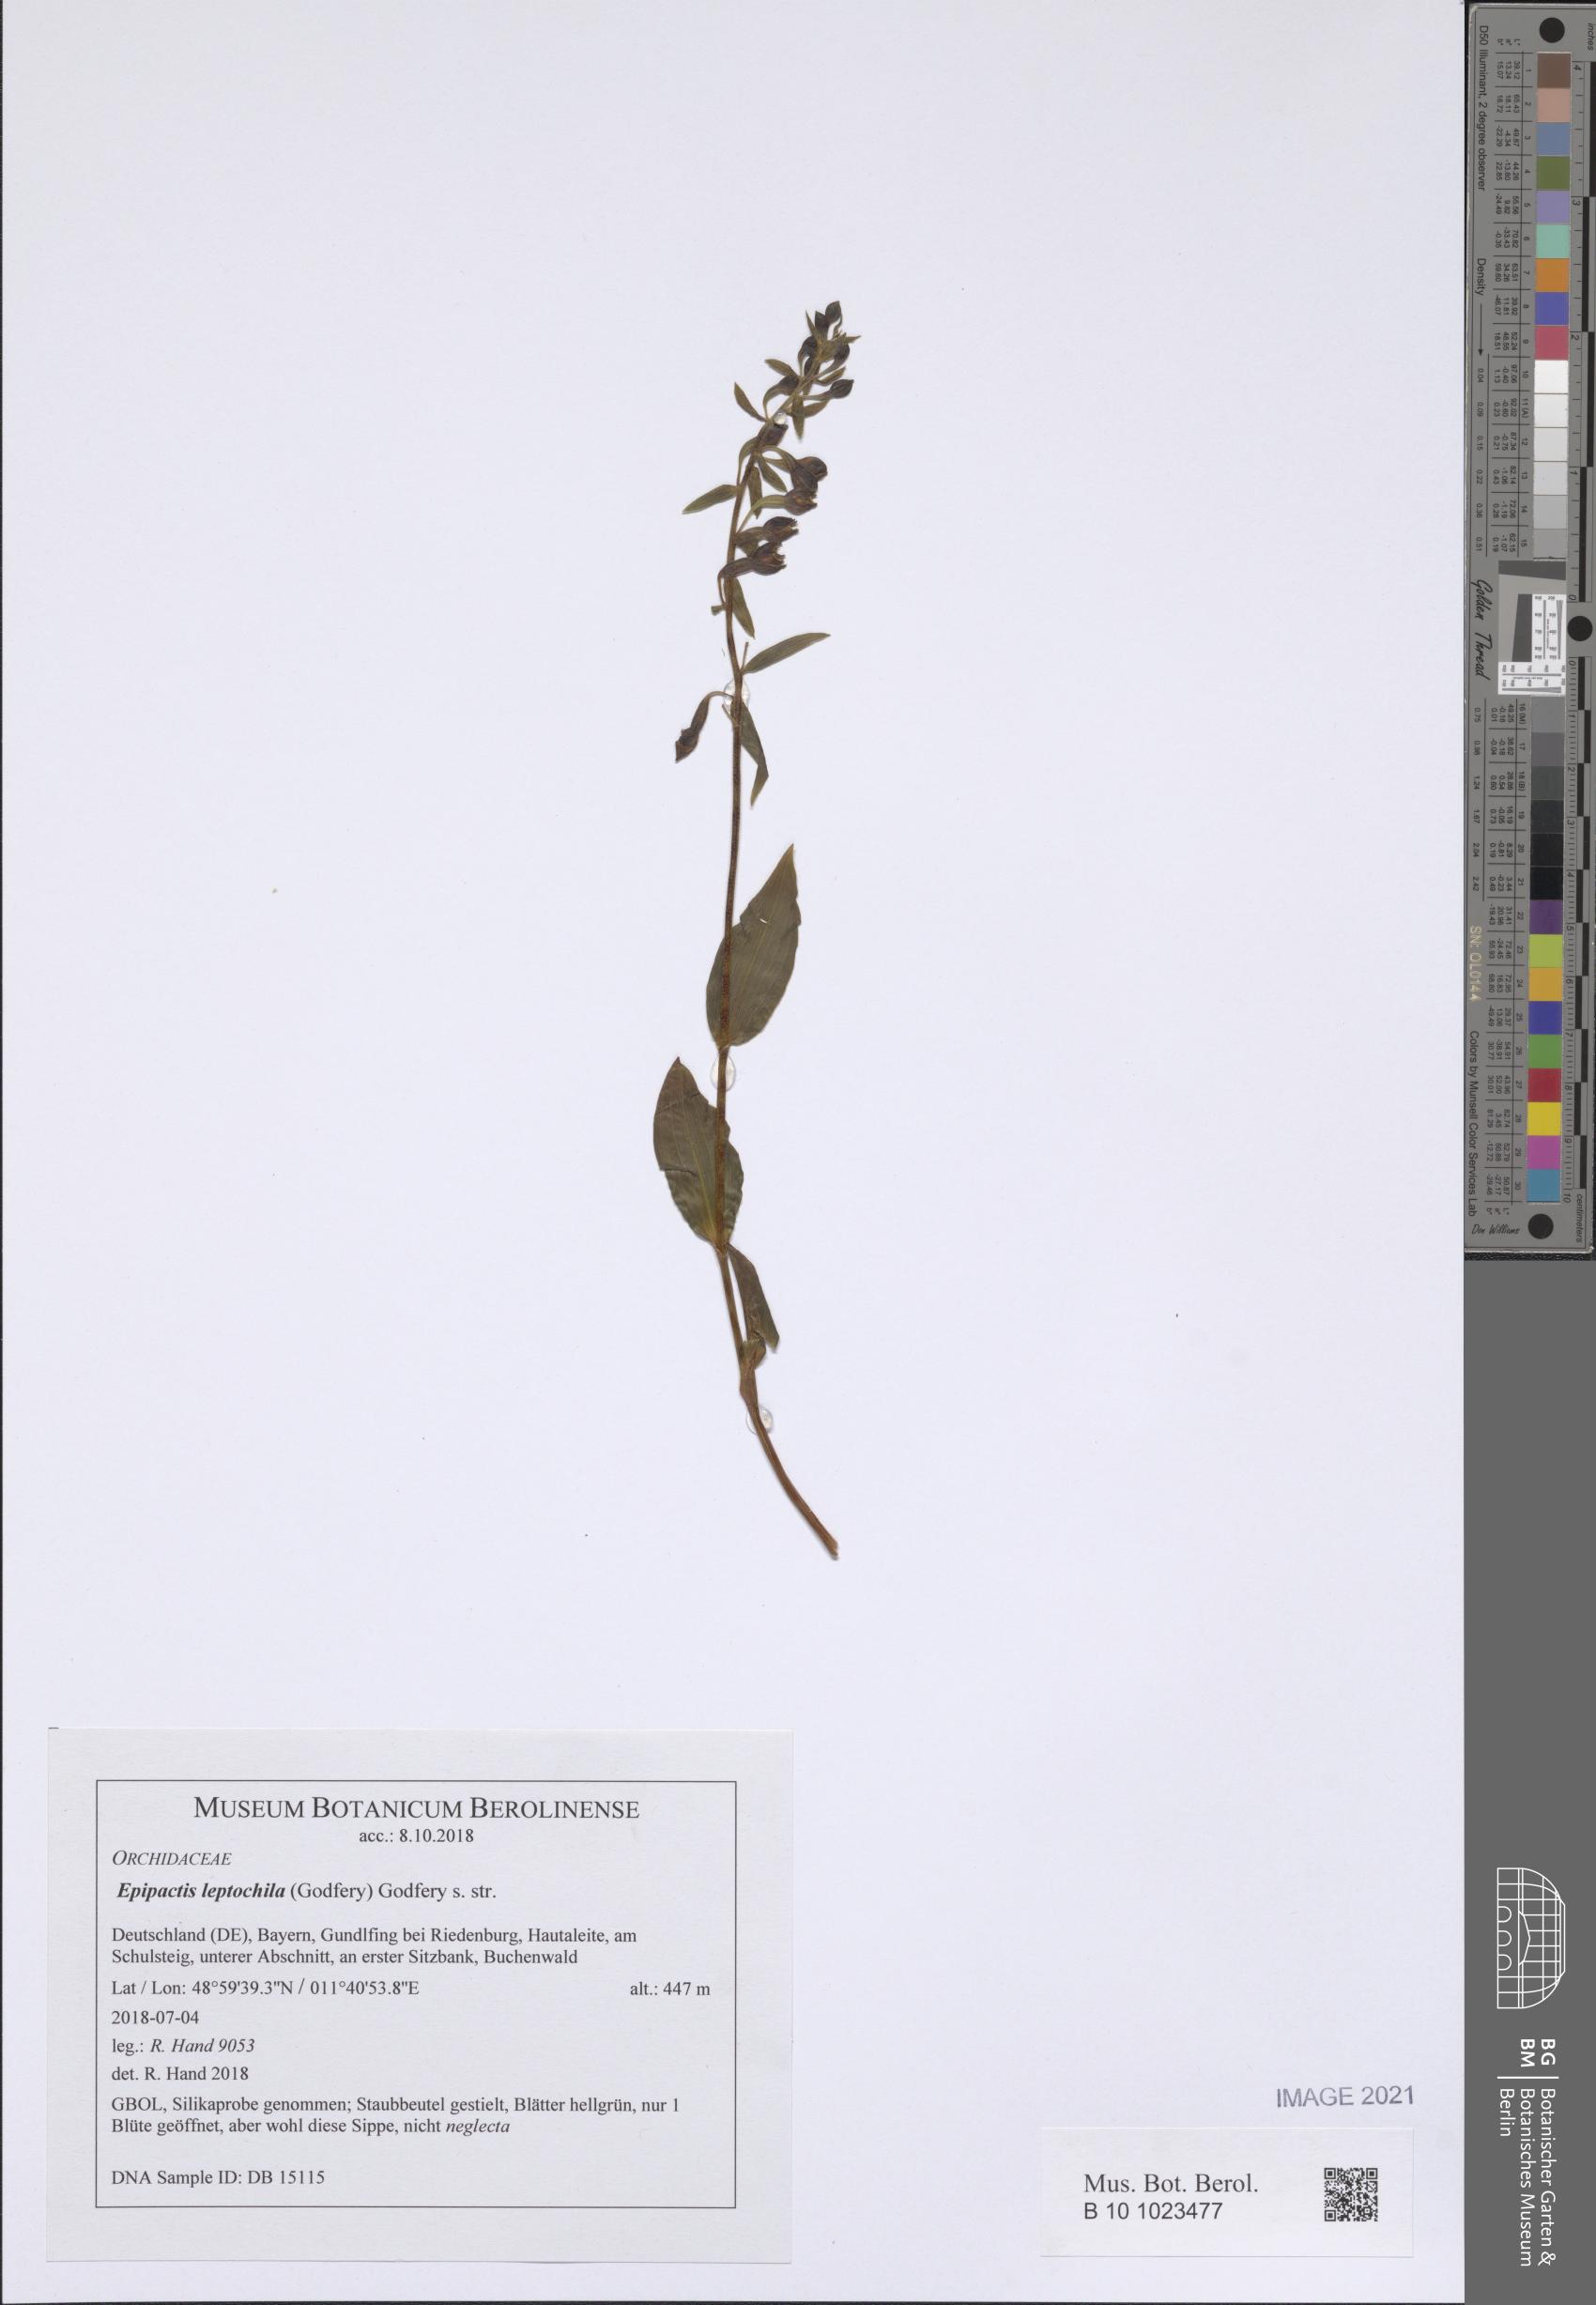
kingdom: Plantae
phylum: Tracheophyta
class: Liliopsida
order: Asparagales
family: Orchidaceae
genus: Epipactis
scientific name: Epipactis leptochila
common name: Narrow-lipped helleborine
